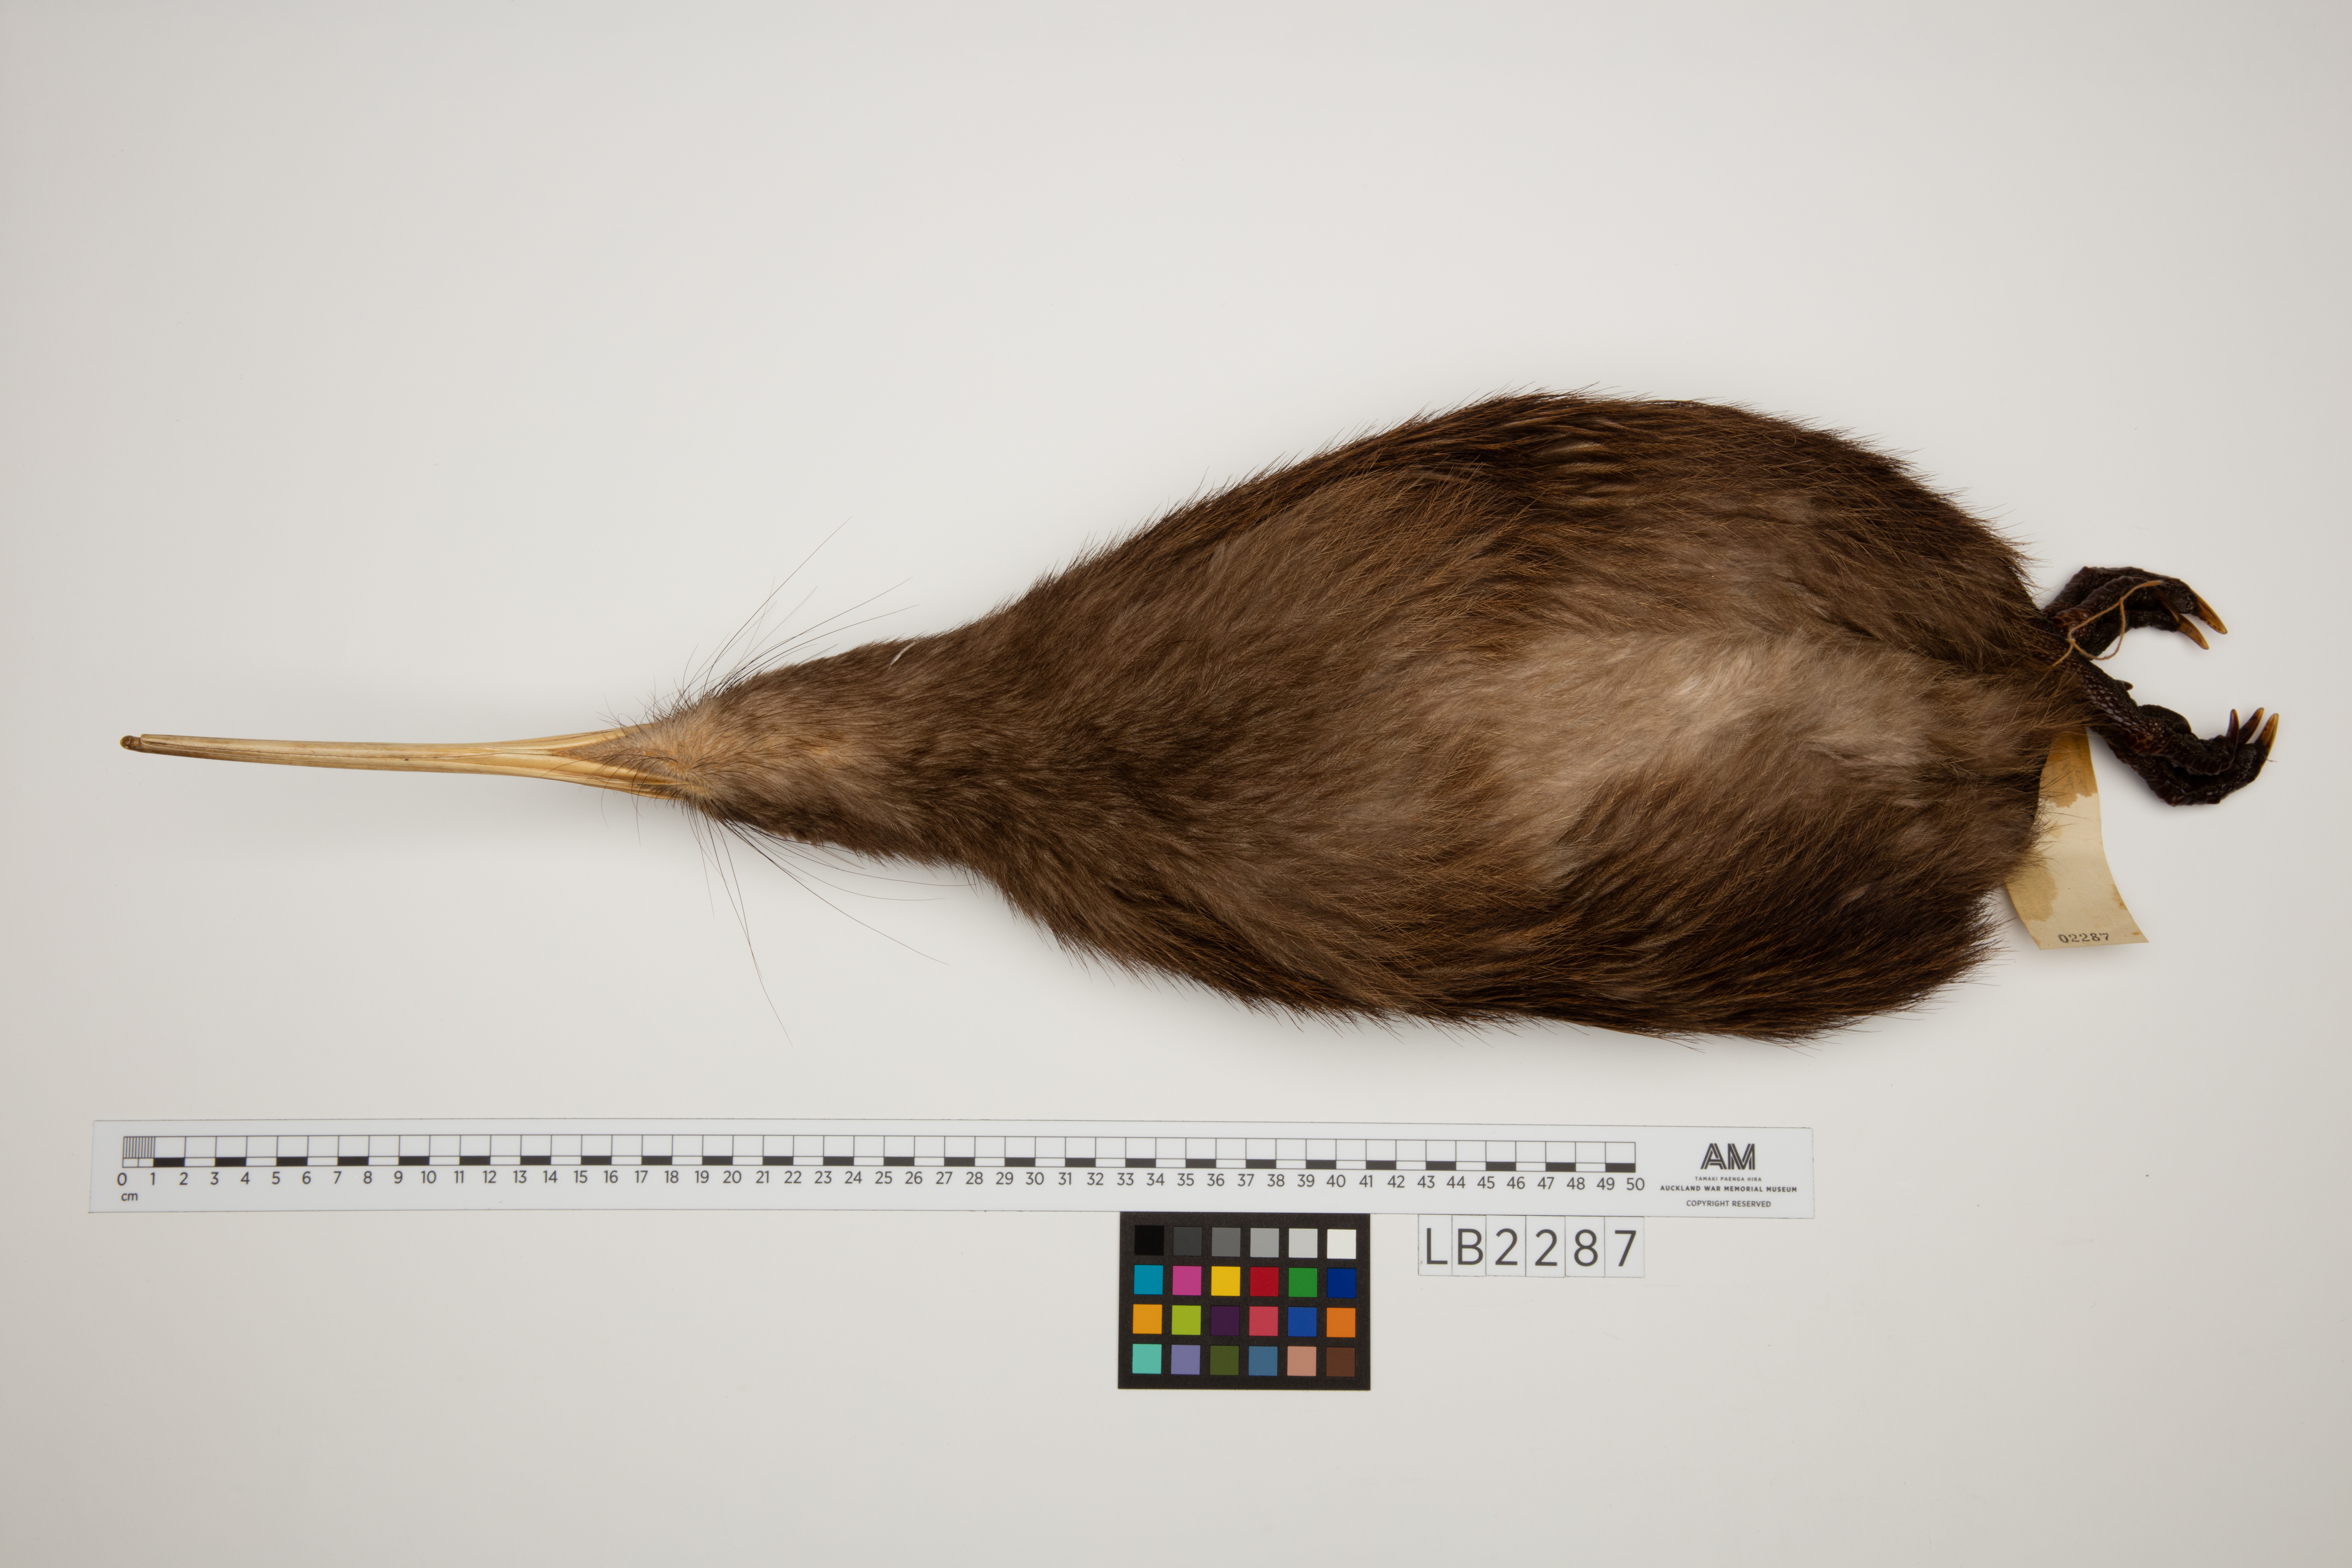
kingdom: Animalia
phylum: Chordata
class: Aves
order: Apterygiformes
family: Apterygidae
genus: Apteryx
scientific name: Apteryx mantelli
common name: North island brown kiwi
